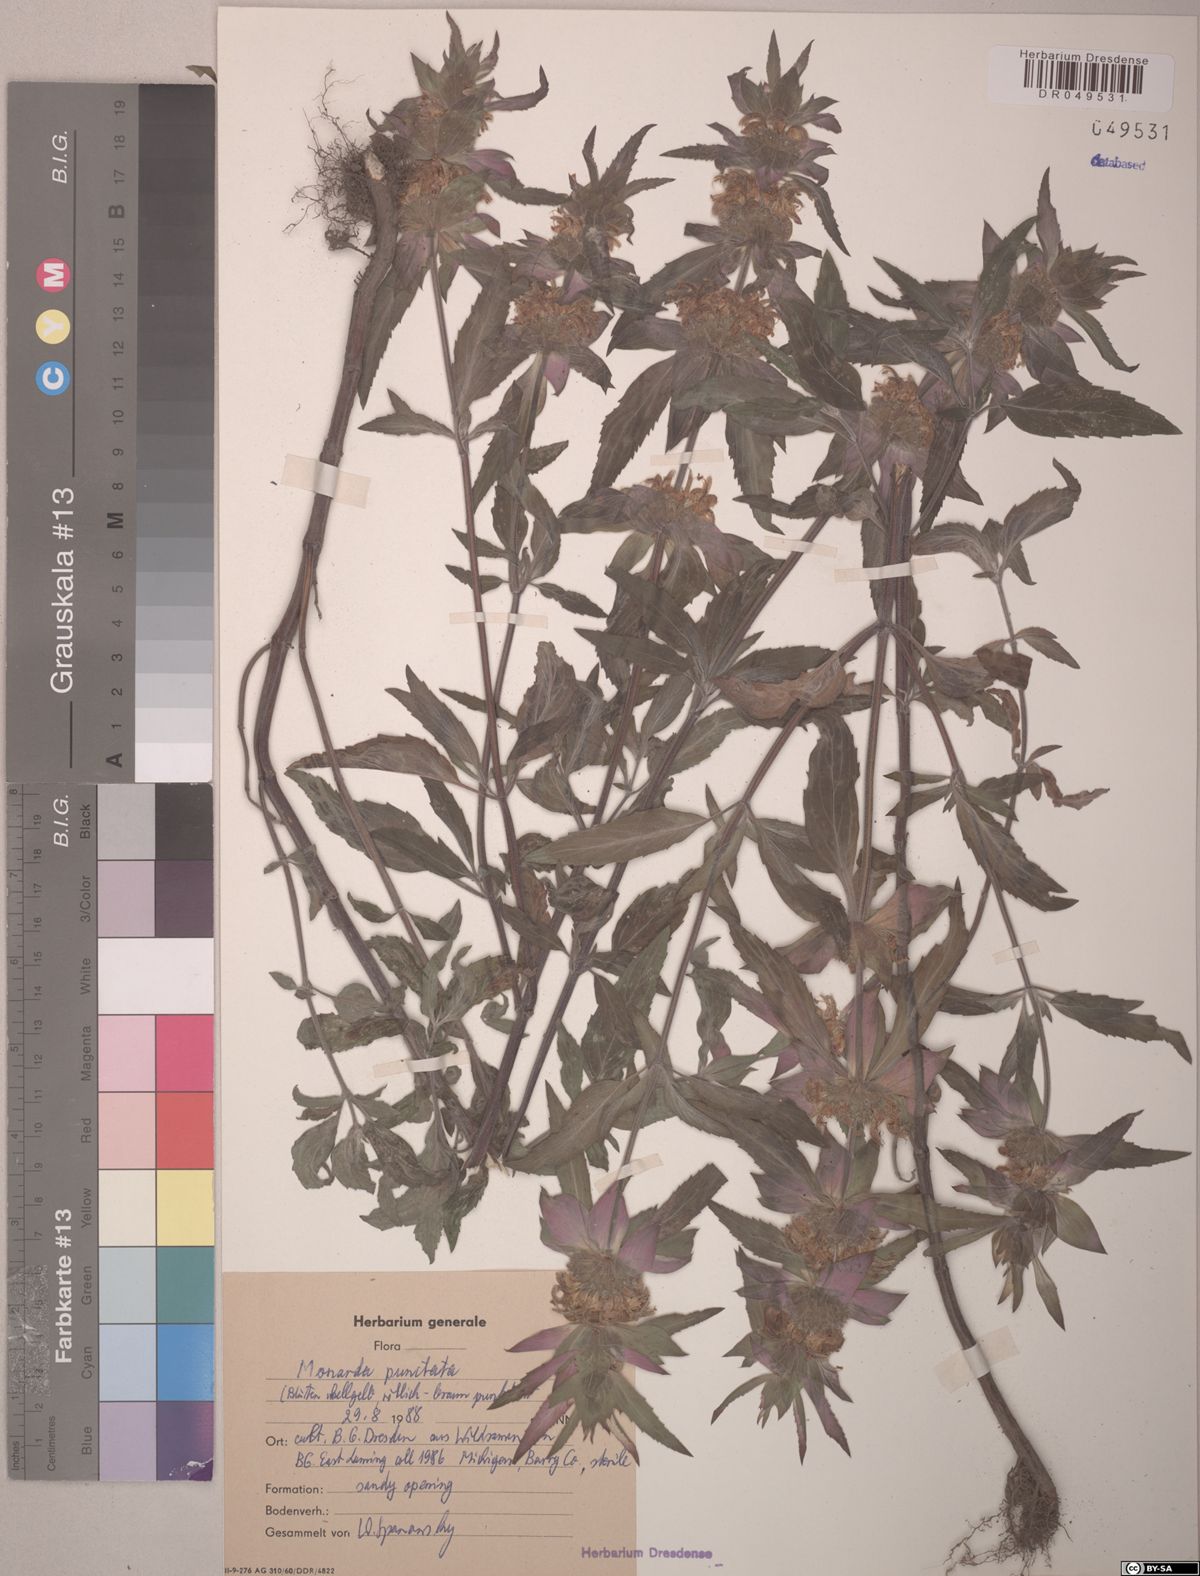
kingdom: Plantae
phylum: Tracheophyta
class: Magnoliopsida
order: Lamiales
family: Lamiaceae
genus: Monarda
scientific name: Monarda punctata
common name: Dotted monarda
